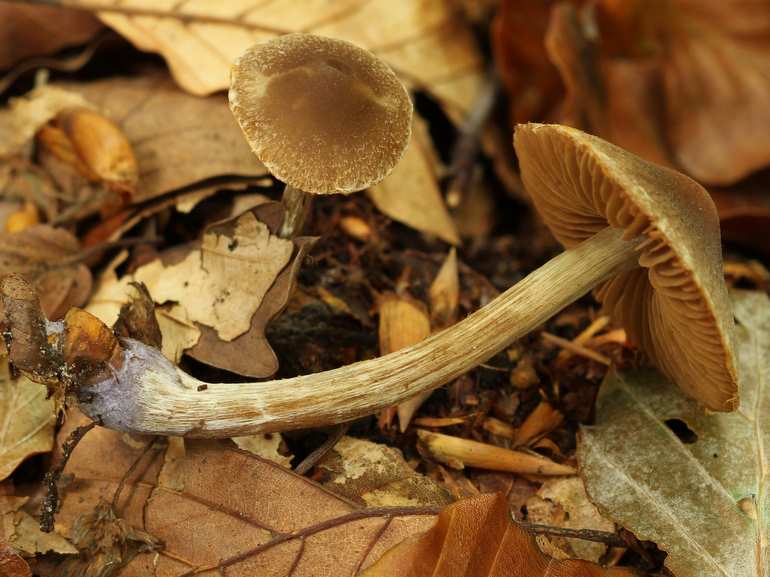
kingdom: Fungi
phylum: Basidiomycota
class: Agaricomycetes
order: Agaricales
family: Cortinariaceae
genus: Cortinarius
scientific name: Cortinarius
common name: pelargonie-slørhat
